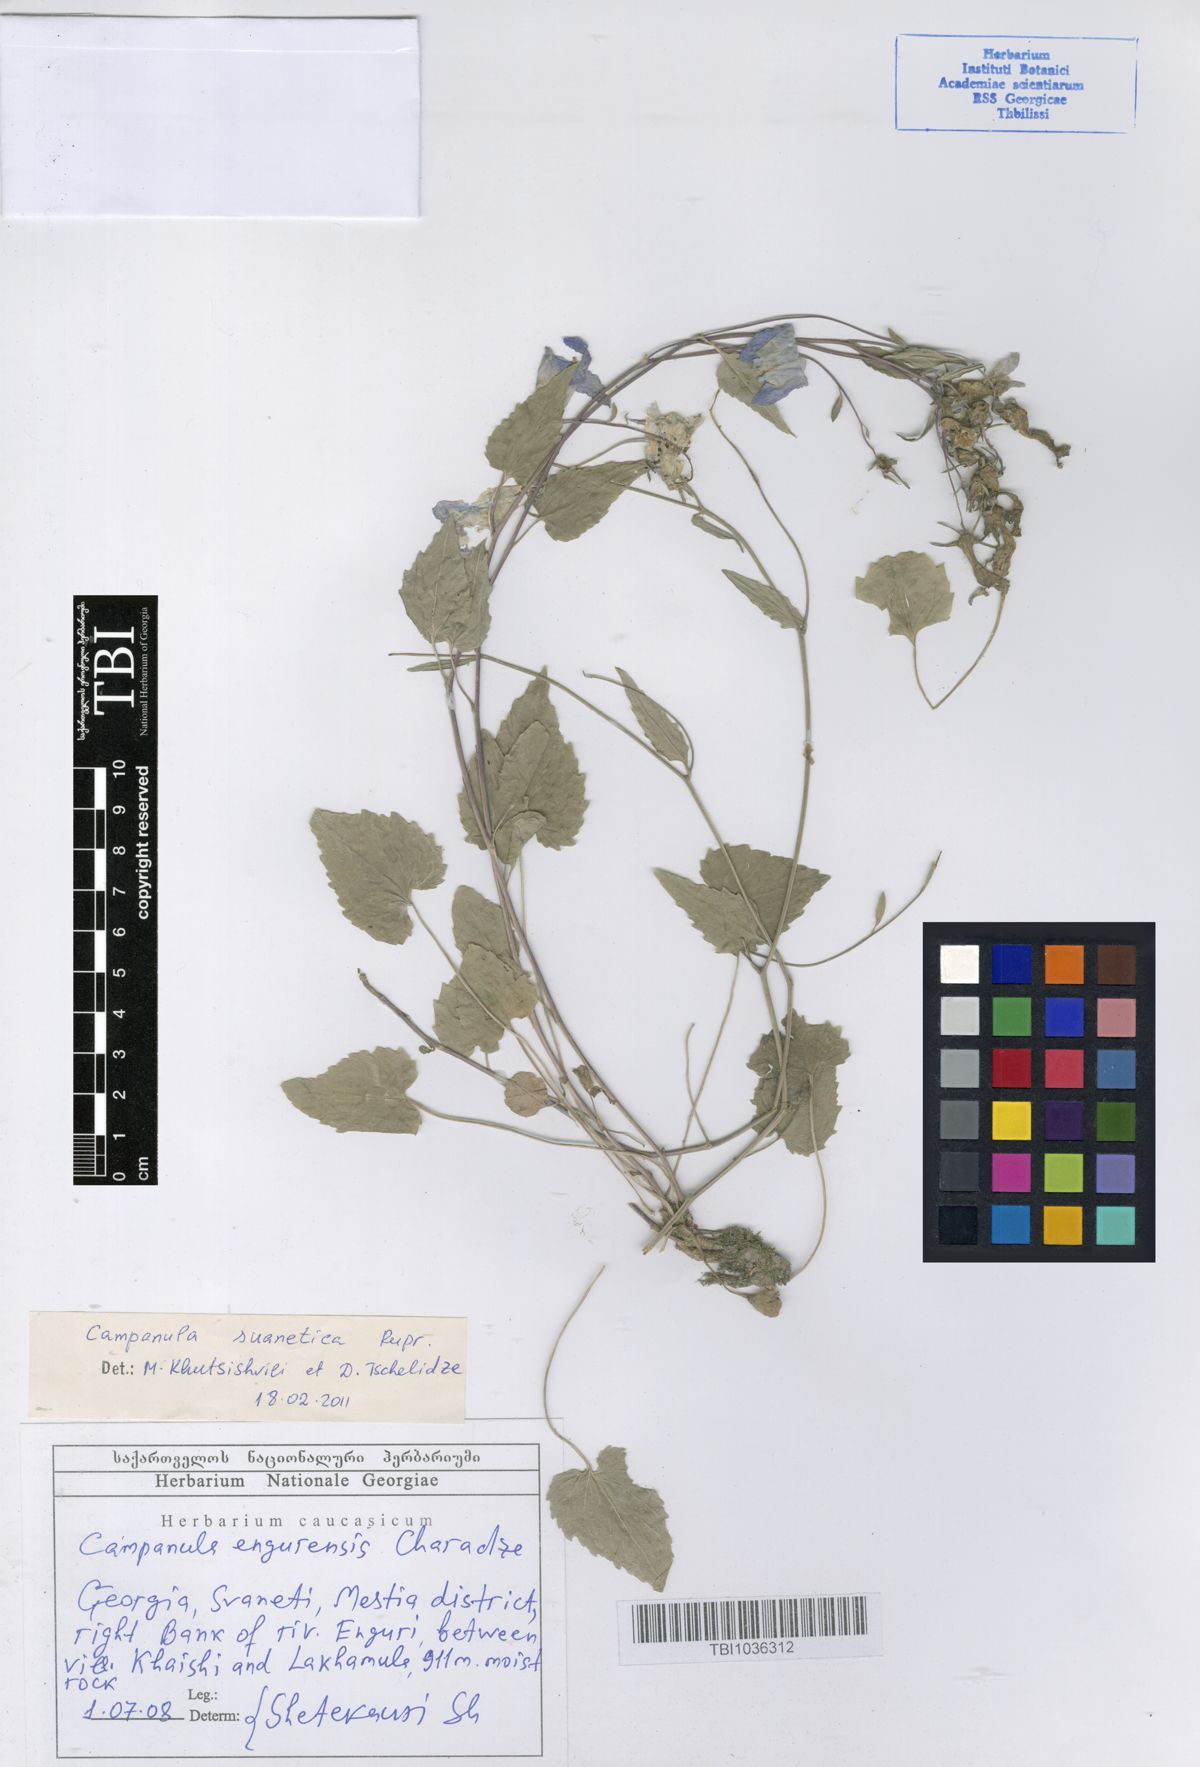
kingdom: Plantae
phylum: Tracheophyta
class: Magnoliopsida
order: Asterales
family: Campanulaceae
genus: Campanula
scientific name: Campanula suanetica
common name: Svanetian bellflower
